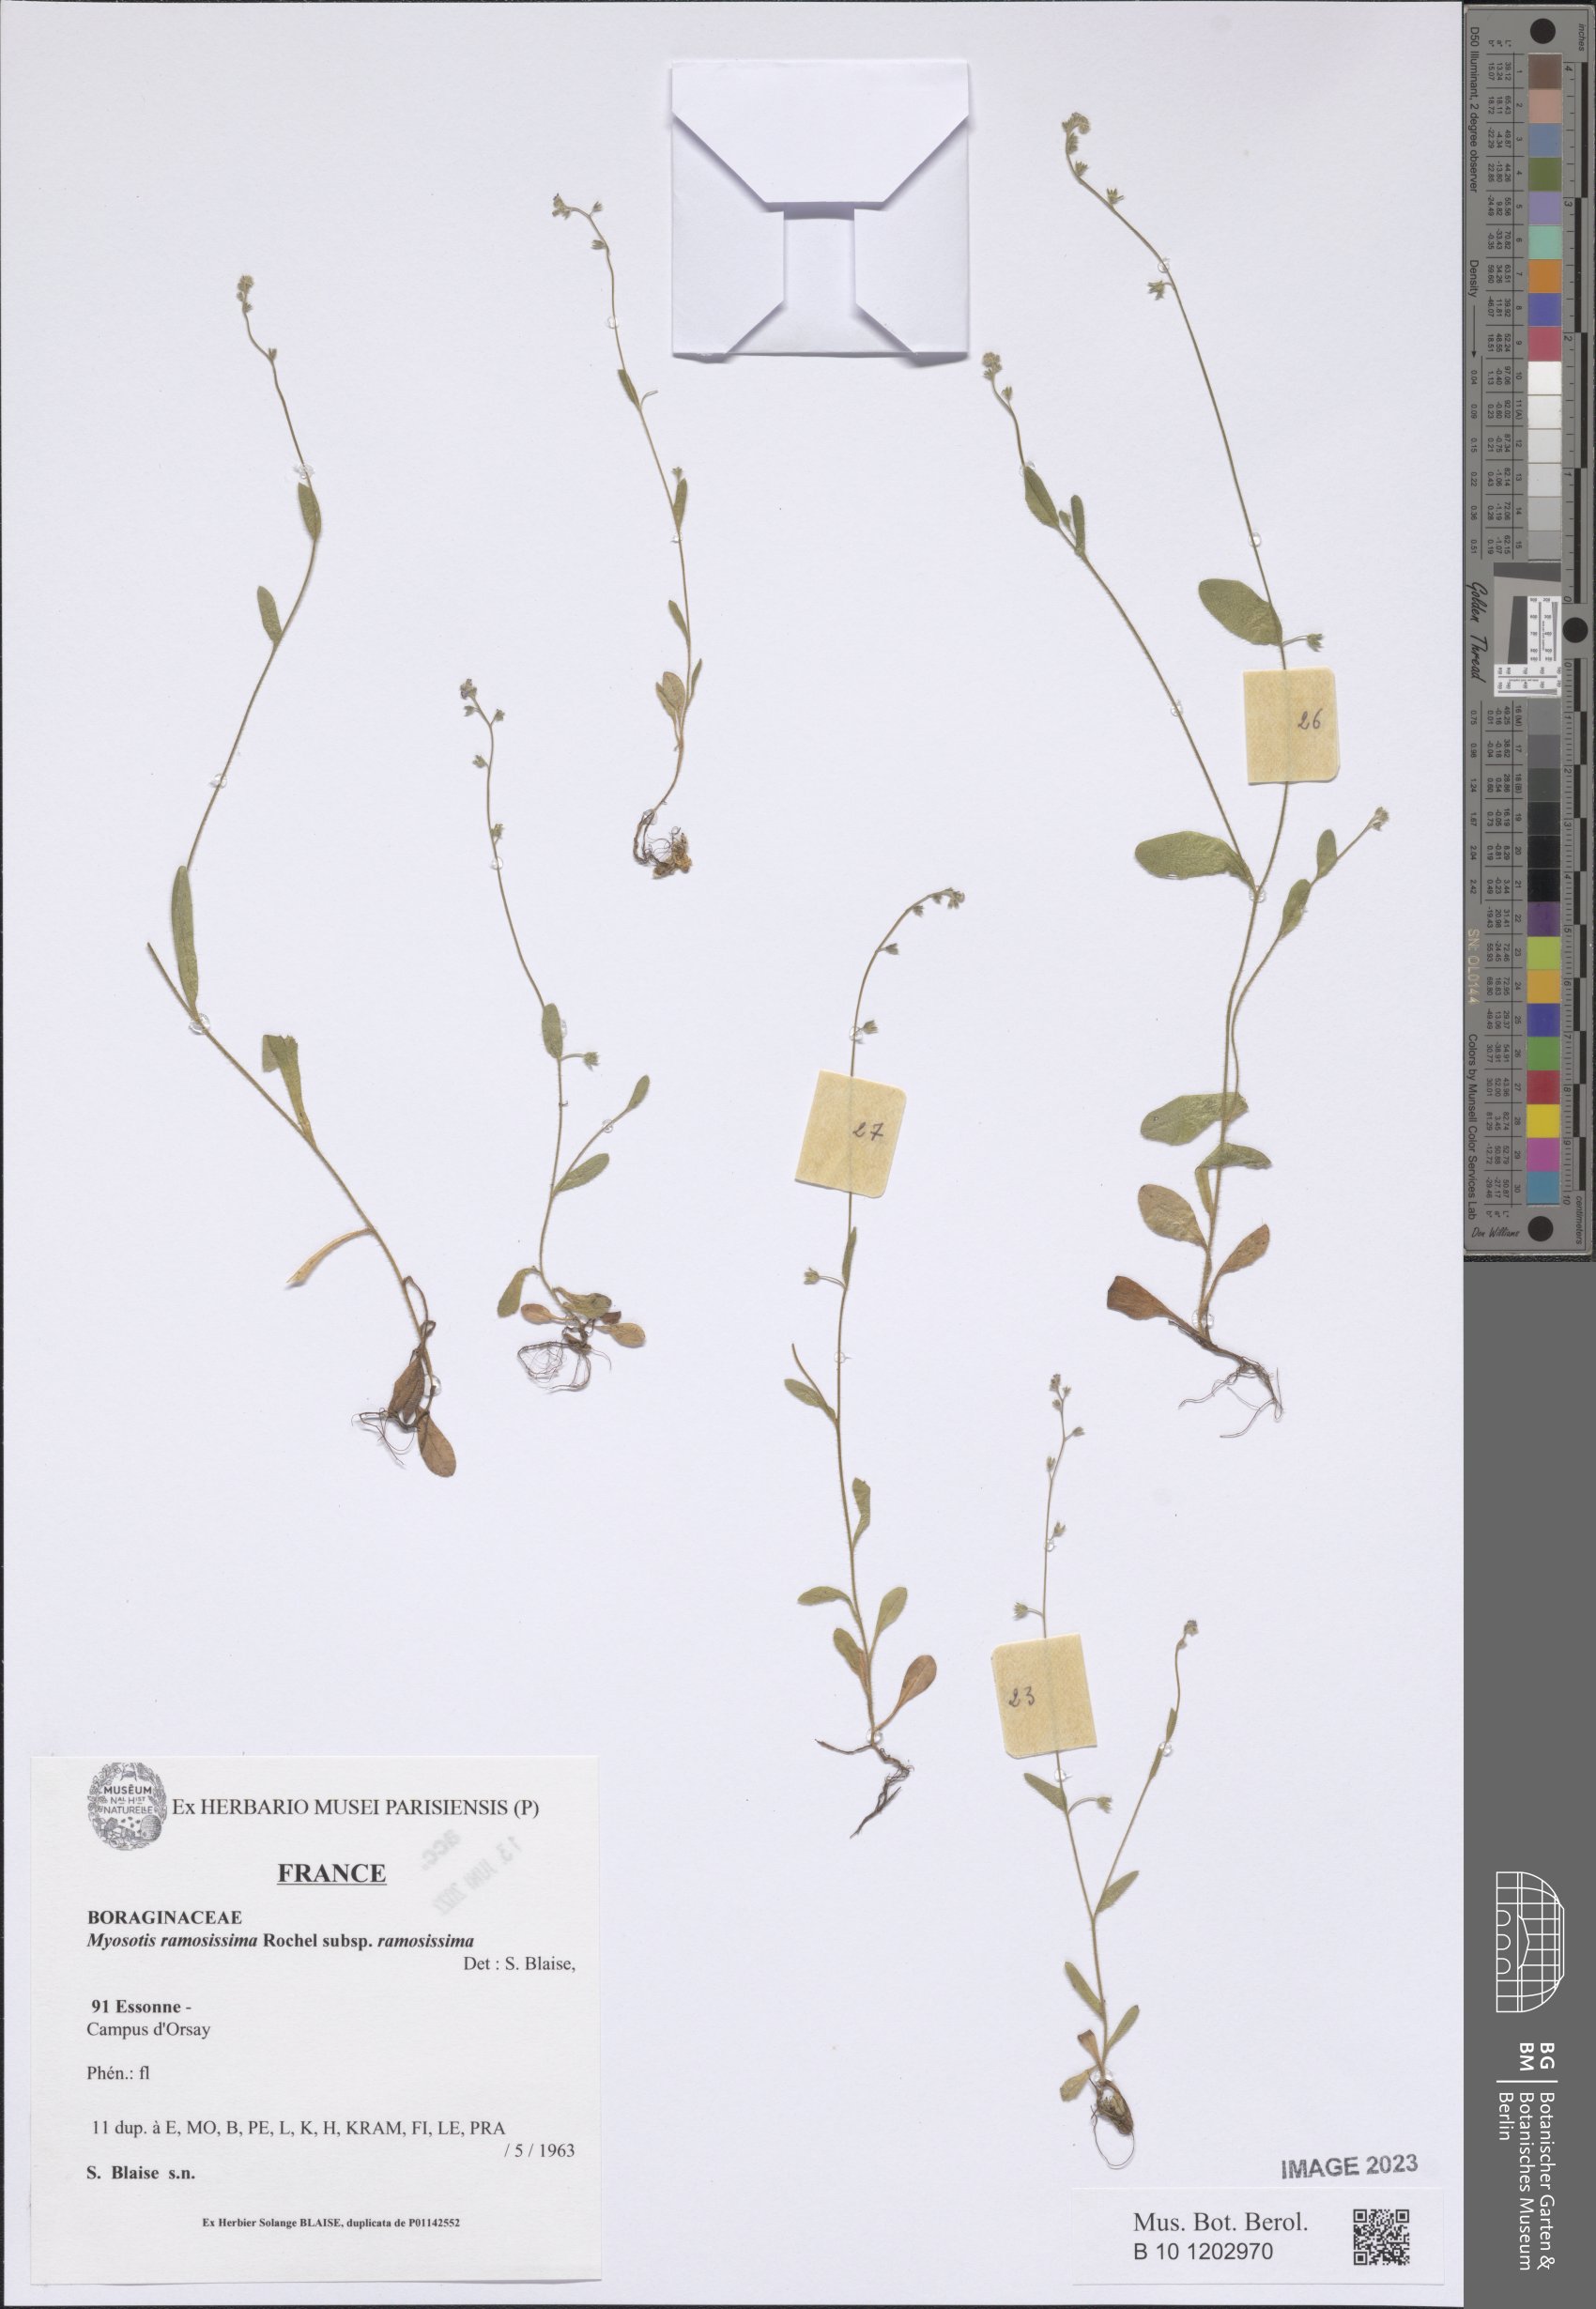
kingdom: Plantae
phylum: Tracheophyta
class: Magnoliopsida
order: Boraginales
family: Boraginaceae
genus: Myosotis
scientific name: Myosotis ramosissima
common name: Early forget-me-not
